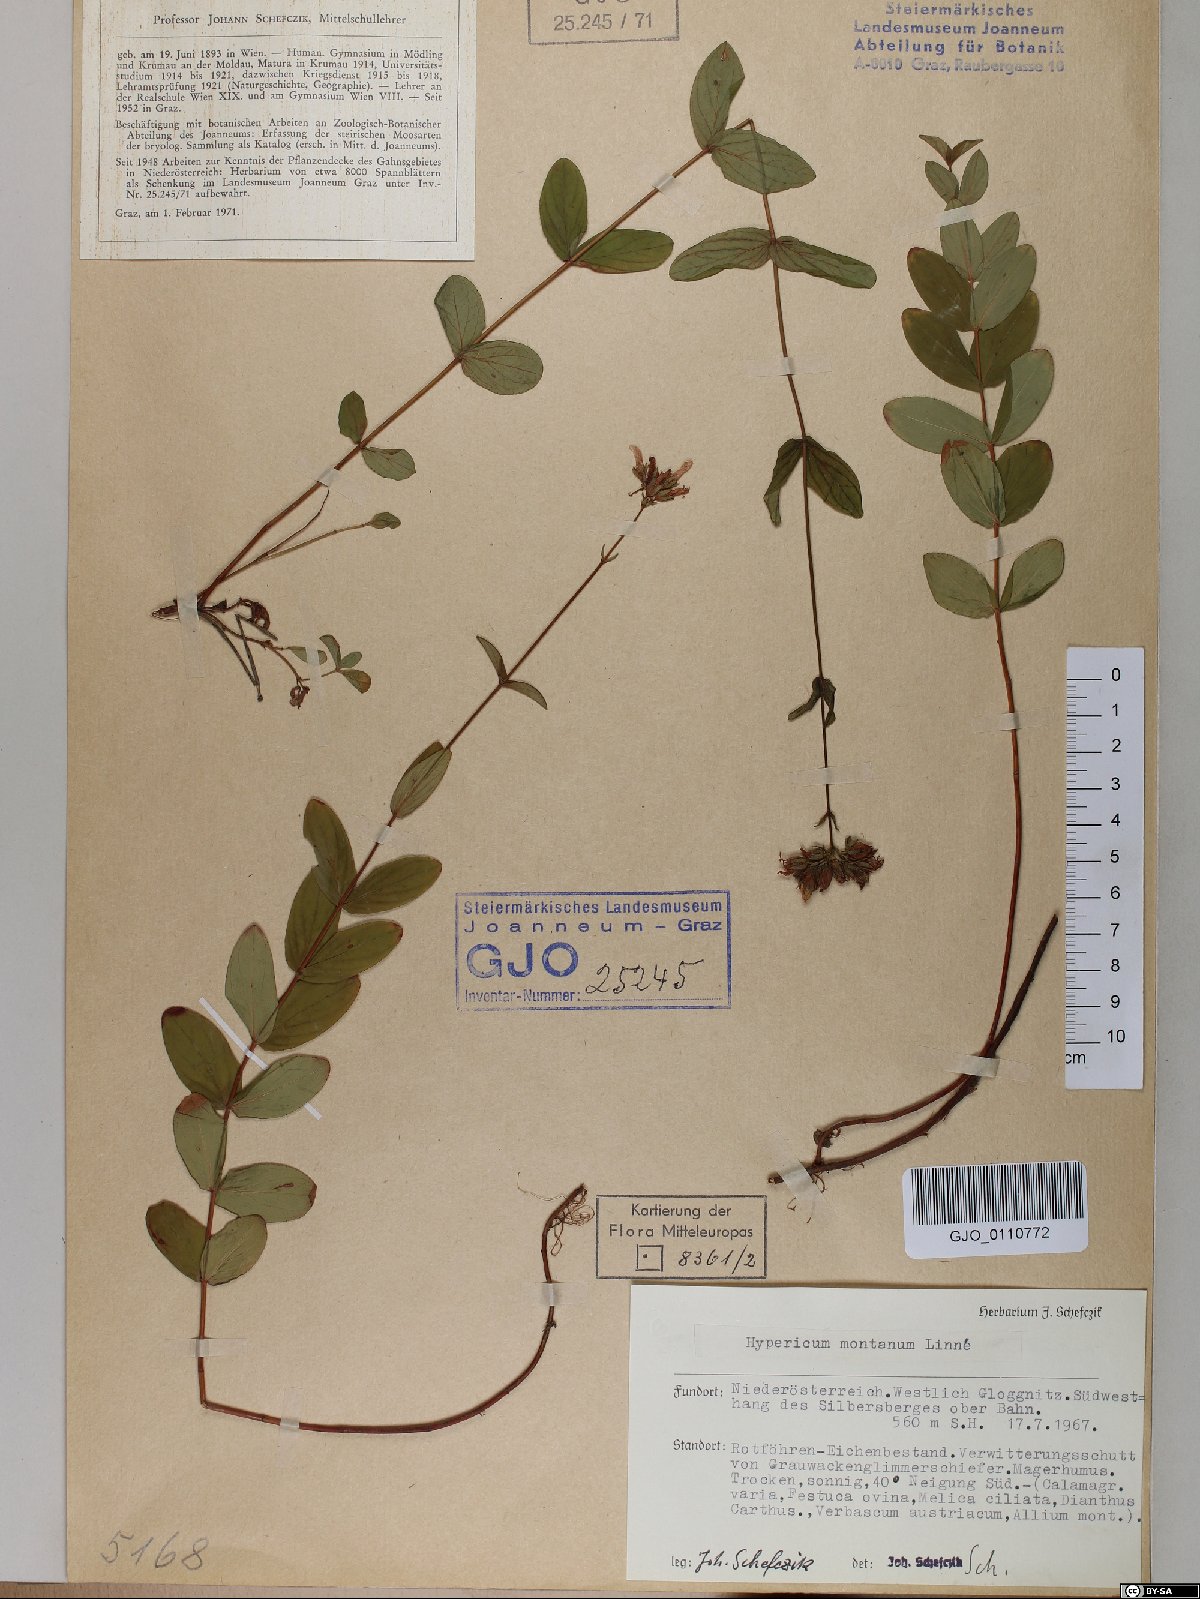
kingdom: Plantae
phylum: Tracheophyta
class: Magnoliopsida
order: Malpighiales
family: Hypericaceae
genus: Hypericum
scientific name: Hypericum montanum
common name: Pale st. john's-wort
